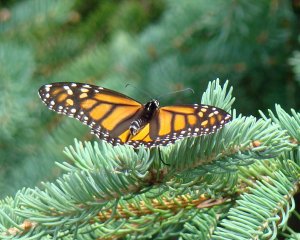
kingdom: Animalia
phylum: Arthropoda
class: Insecta
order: Lepidoptera
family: Nymphalidae
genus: Danaus
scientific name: Danaus plexippus
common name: Monarch
